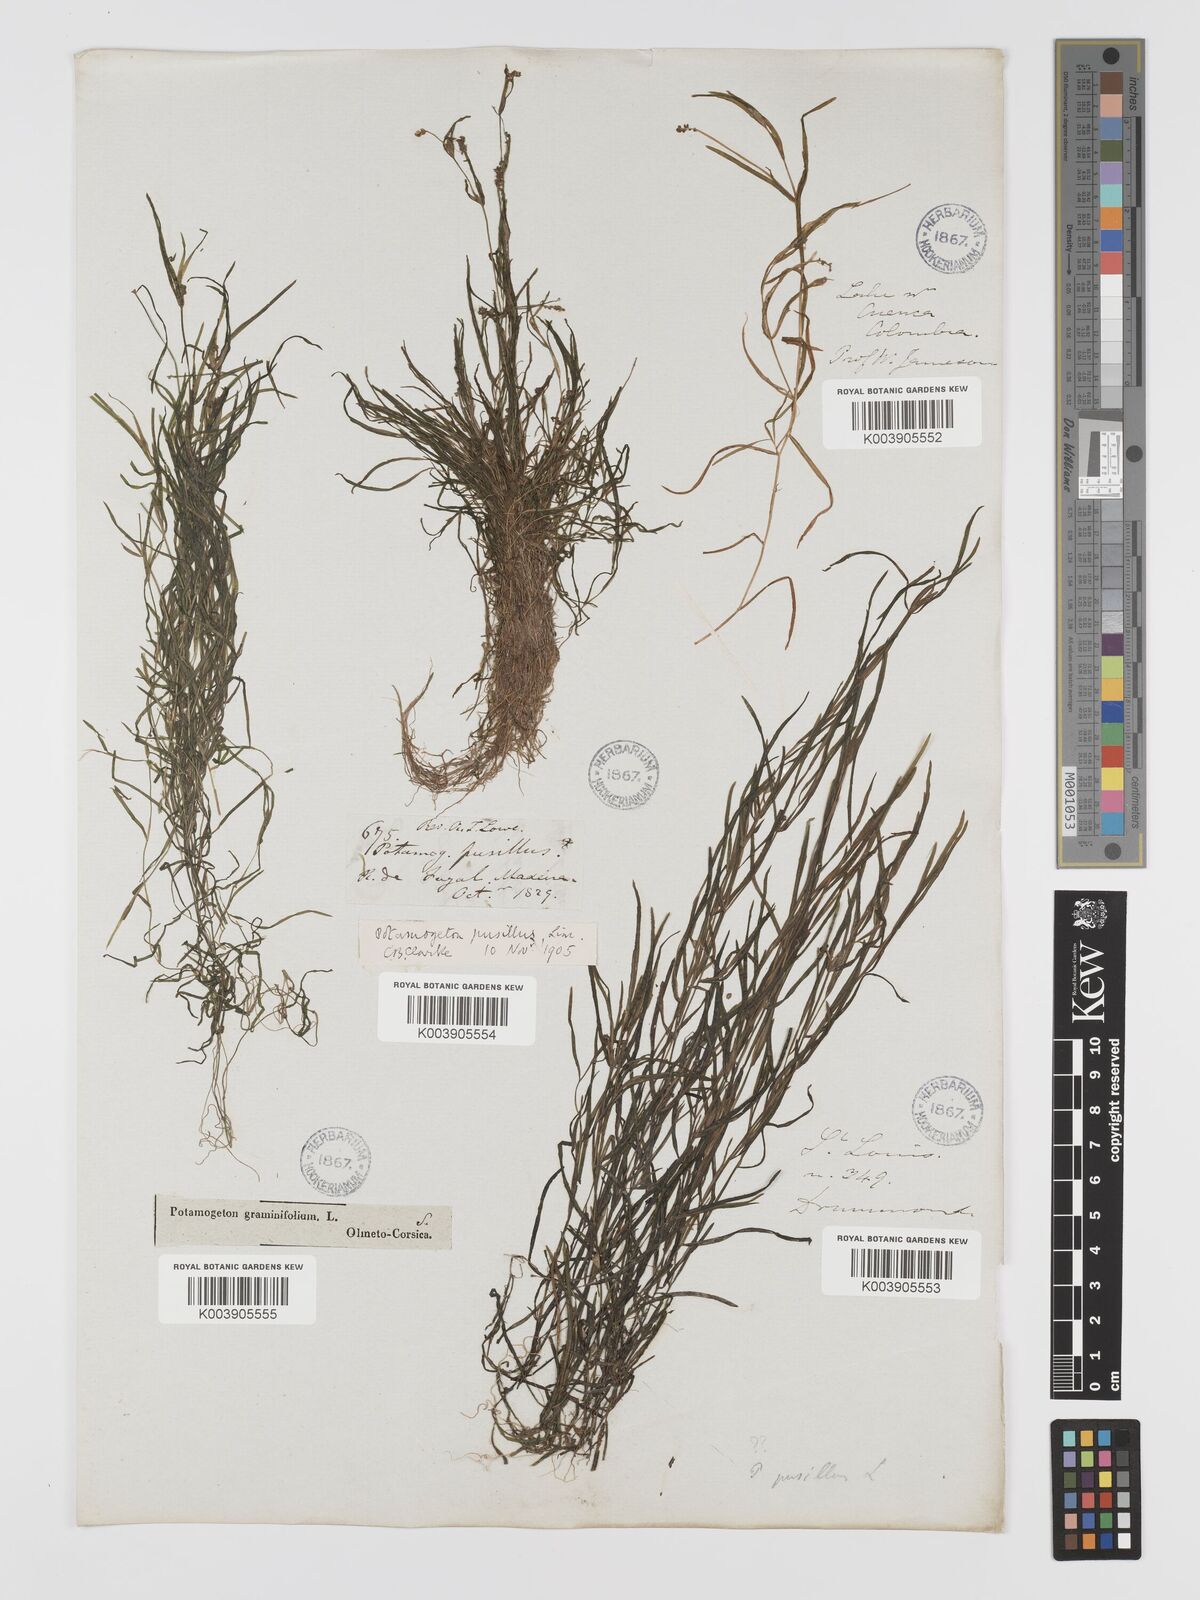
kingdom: Plantae
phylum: Tracheophyta
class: Liliopsida
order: Alismatales
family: Potamogetonaceae
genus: Potamogeton
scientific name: Potamogeton pusillus
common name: Lesser pondweed
